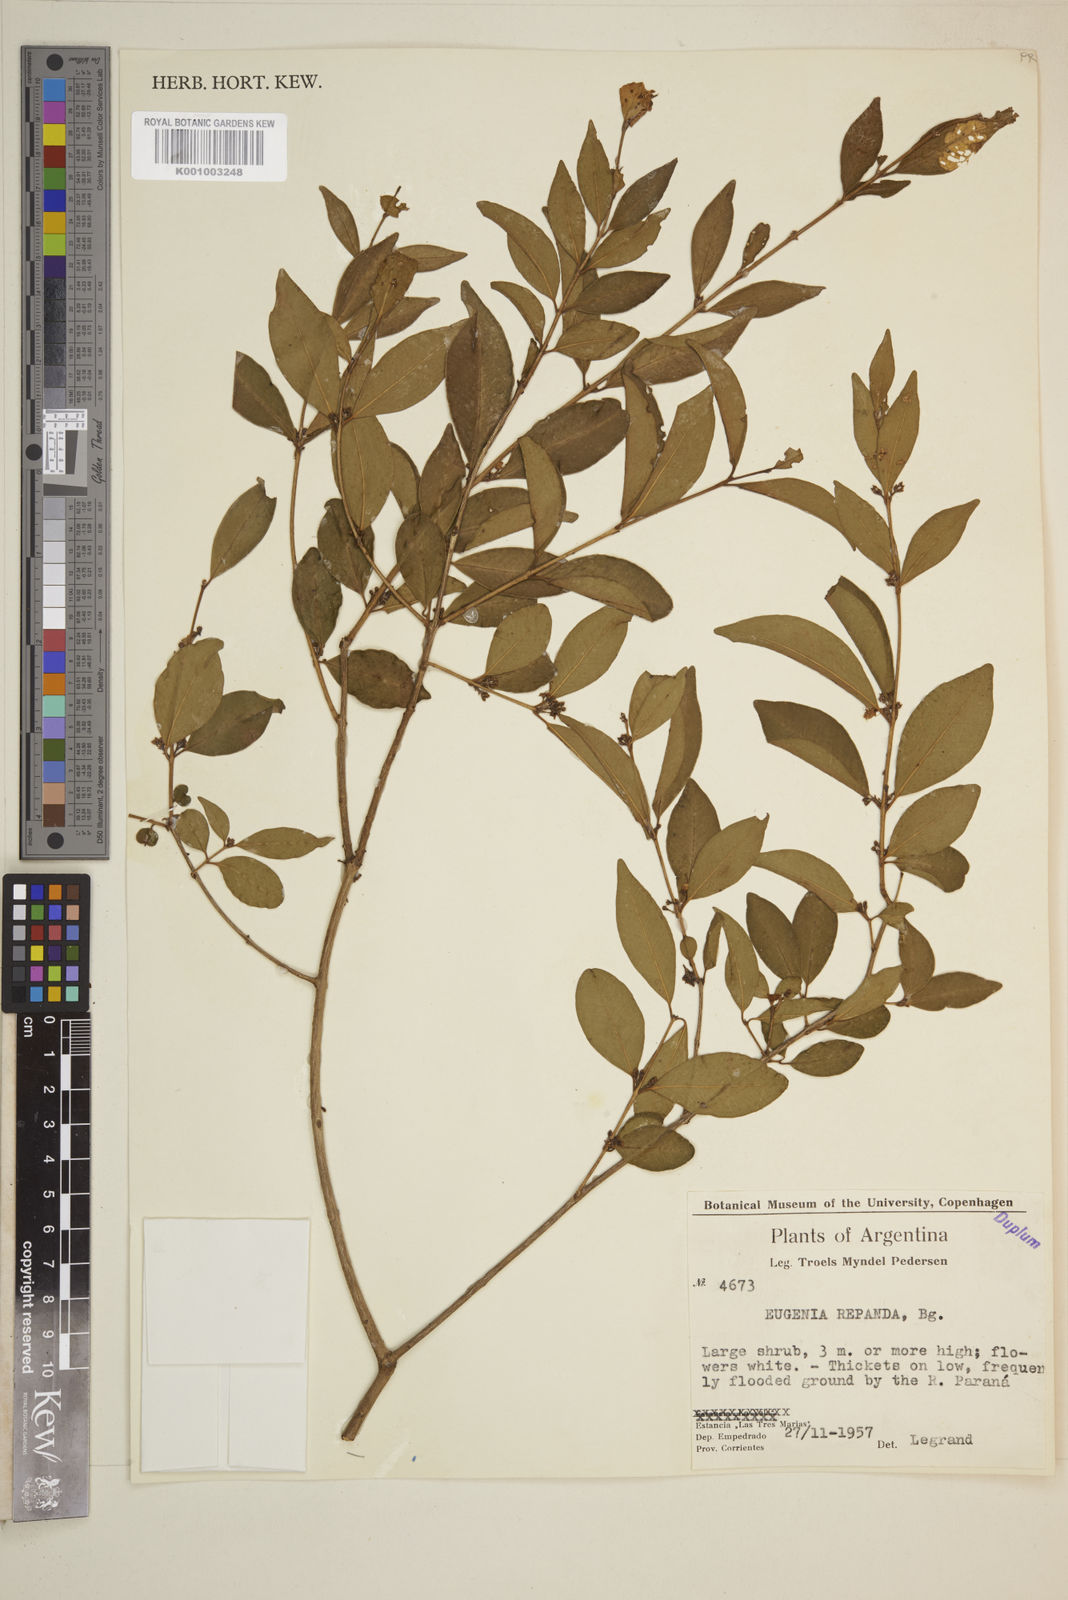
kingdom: Plantae
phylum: Tracheophyta
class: Magnoliopsida
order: Myrtales
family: Myrtaceae
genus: Eugenia
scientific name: Eugenia repanda
